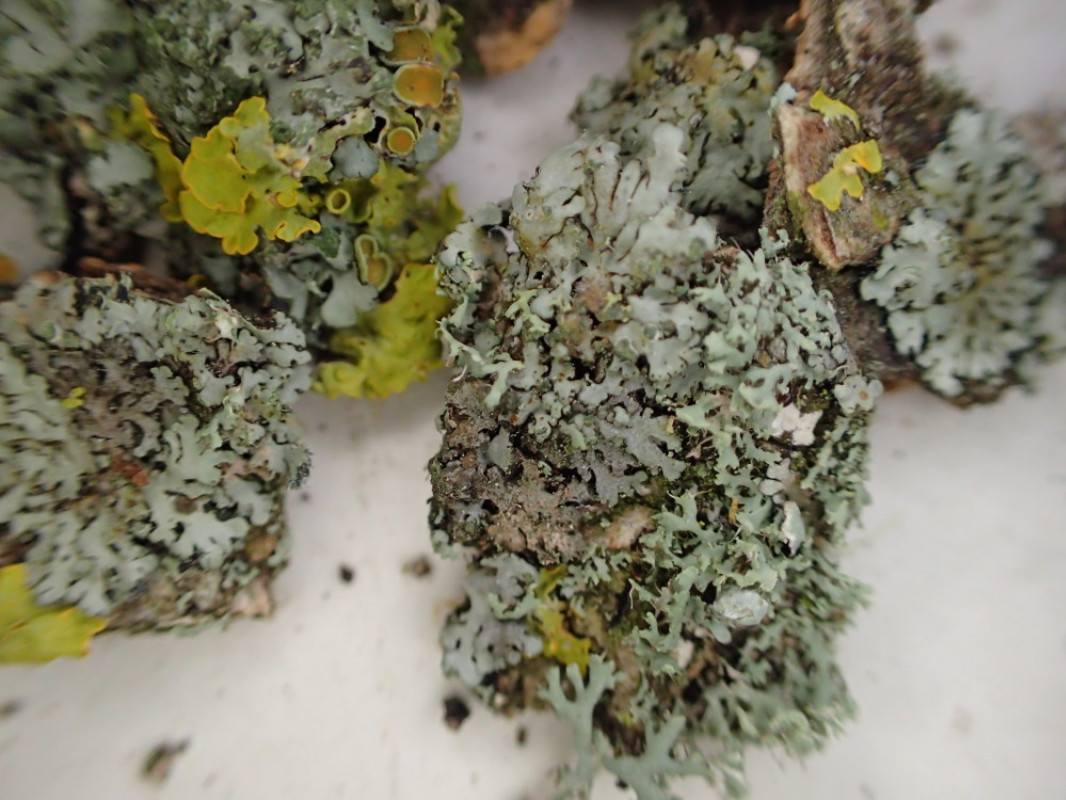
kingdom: Fungi
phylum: Ascomycota
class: Lecanoromycetes
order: Caliciales
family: Physciaceae
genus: Phaeophyscia
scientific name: Phaeophyscia orbicularis
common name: grågrøn rosetlav
